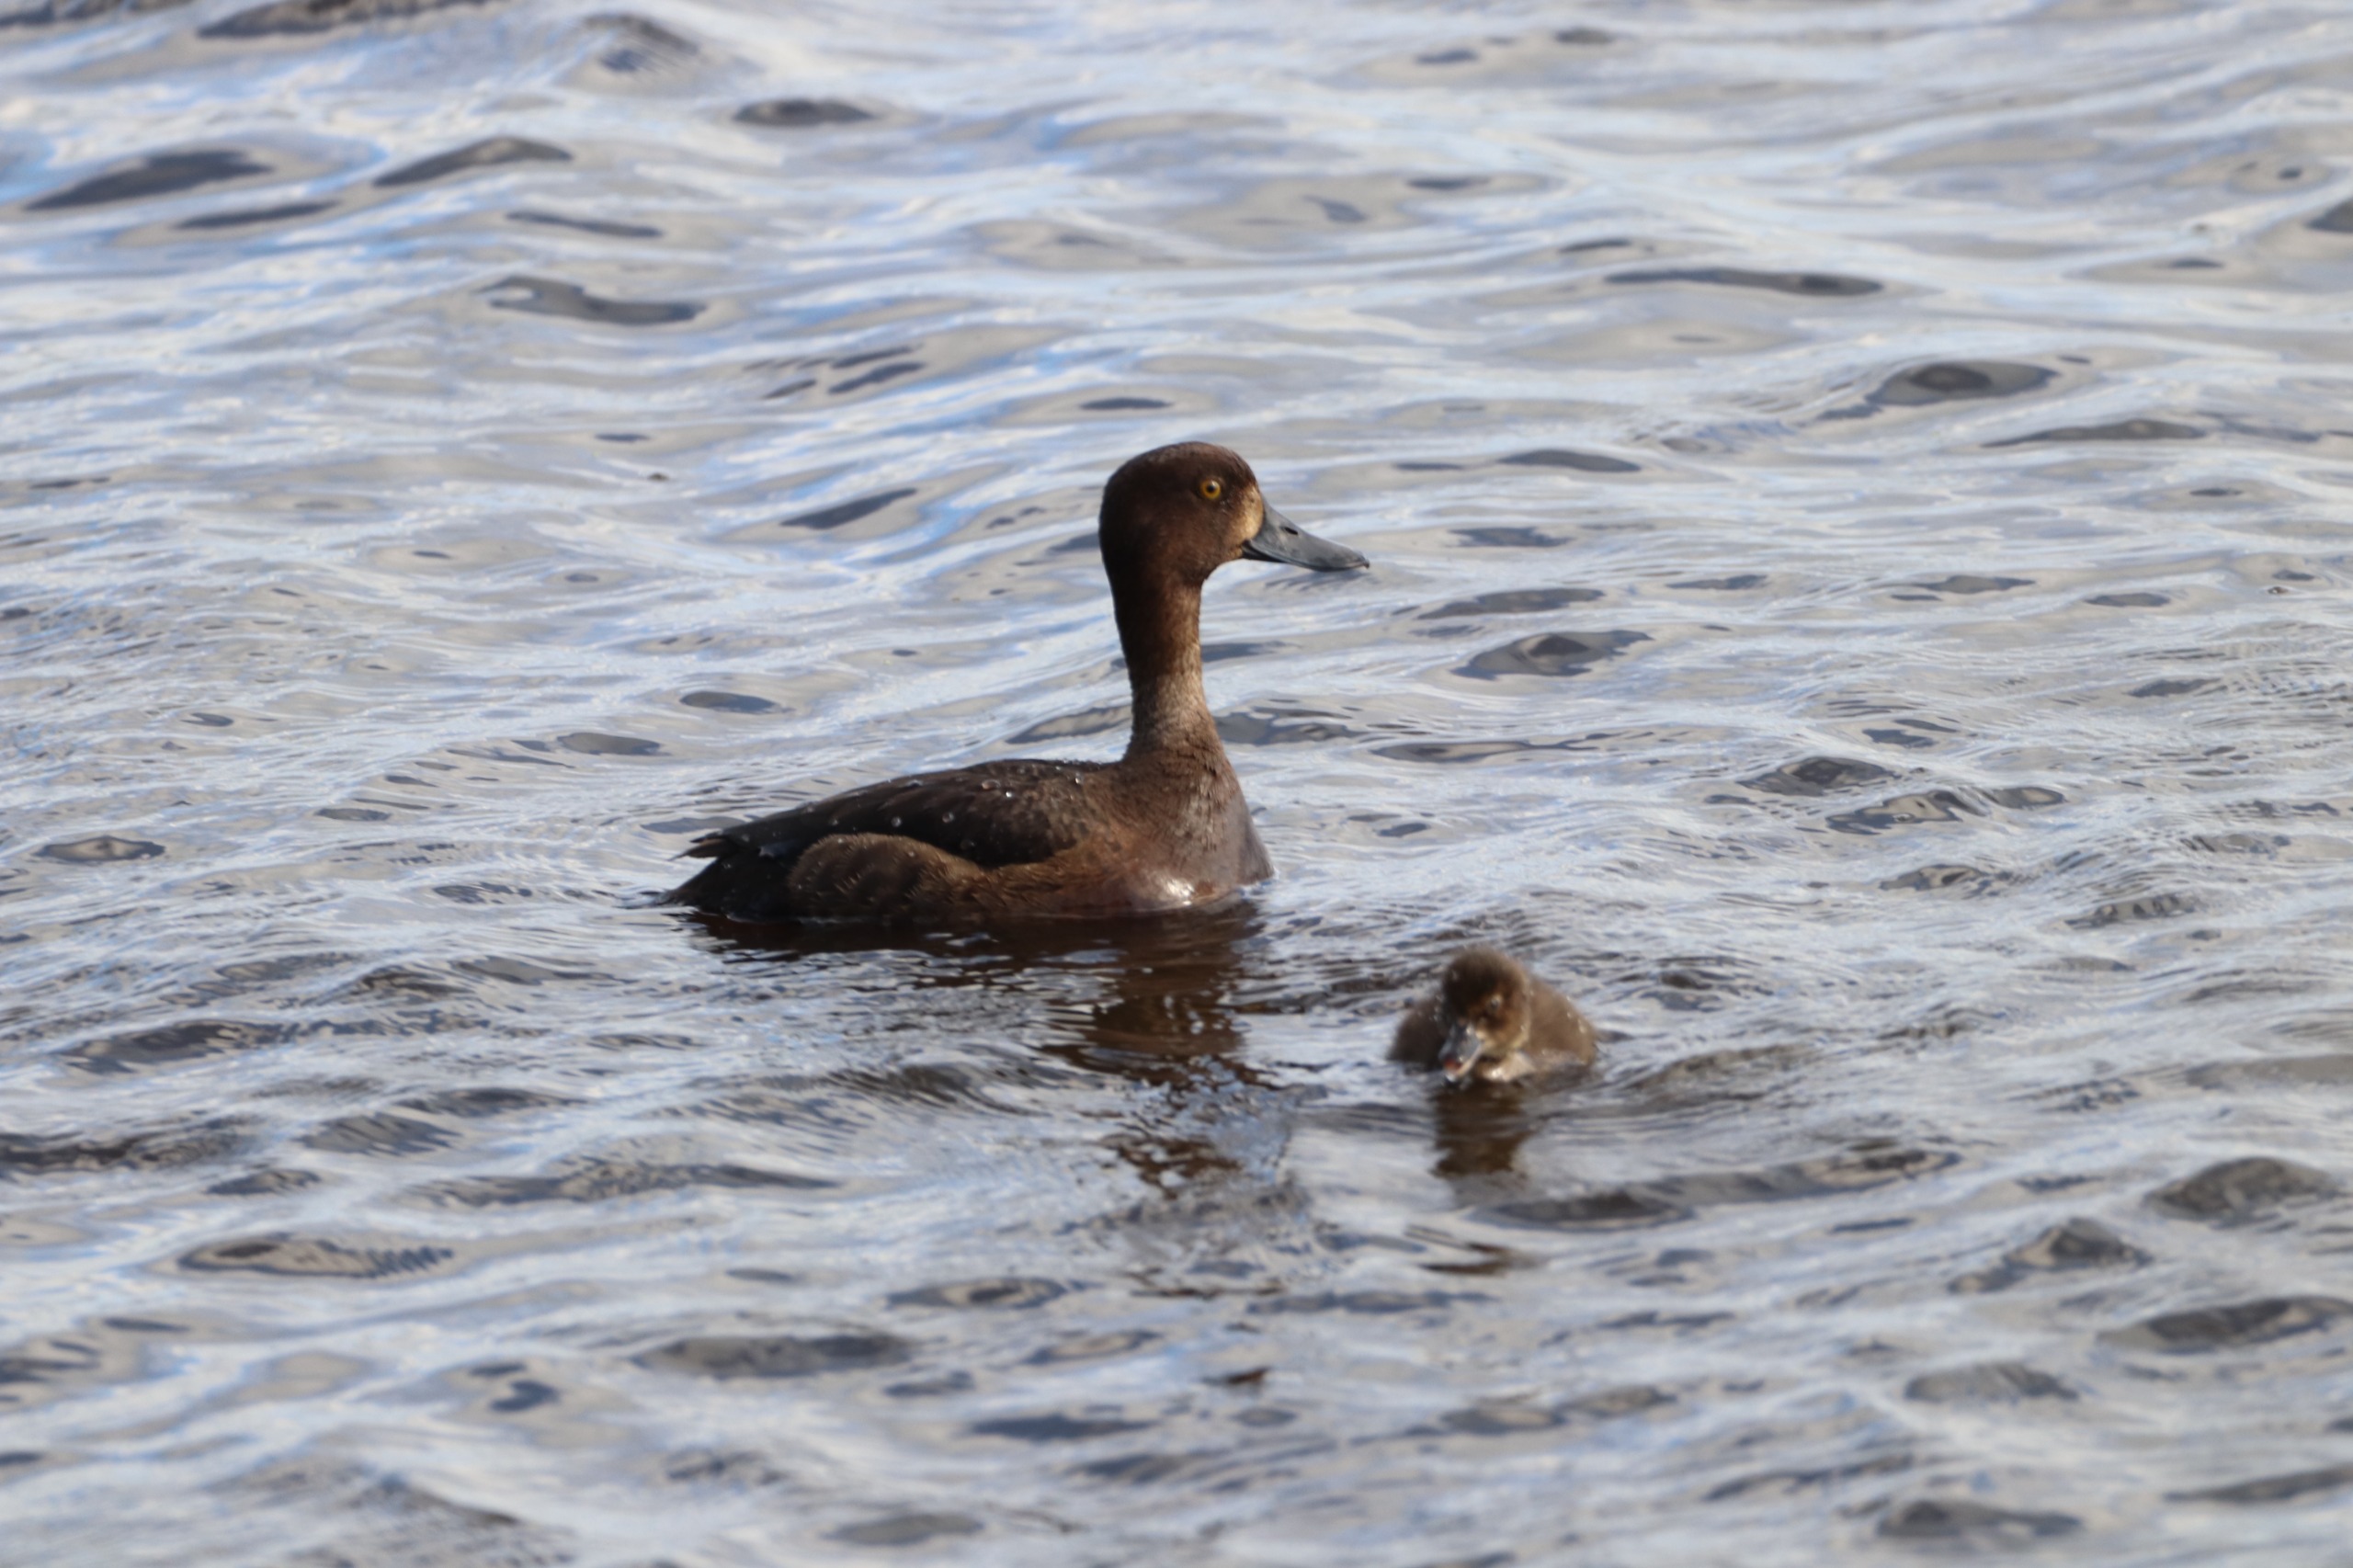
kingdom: Animalia
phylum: Chordata
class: Aves
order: Anseriformes
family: Anatidae
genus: Aythya
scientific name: Aythya fuligula
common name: Troldand
